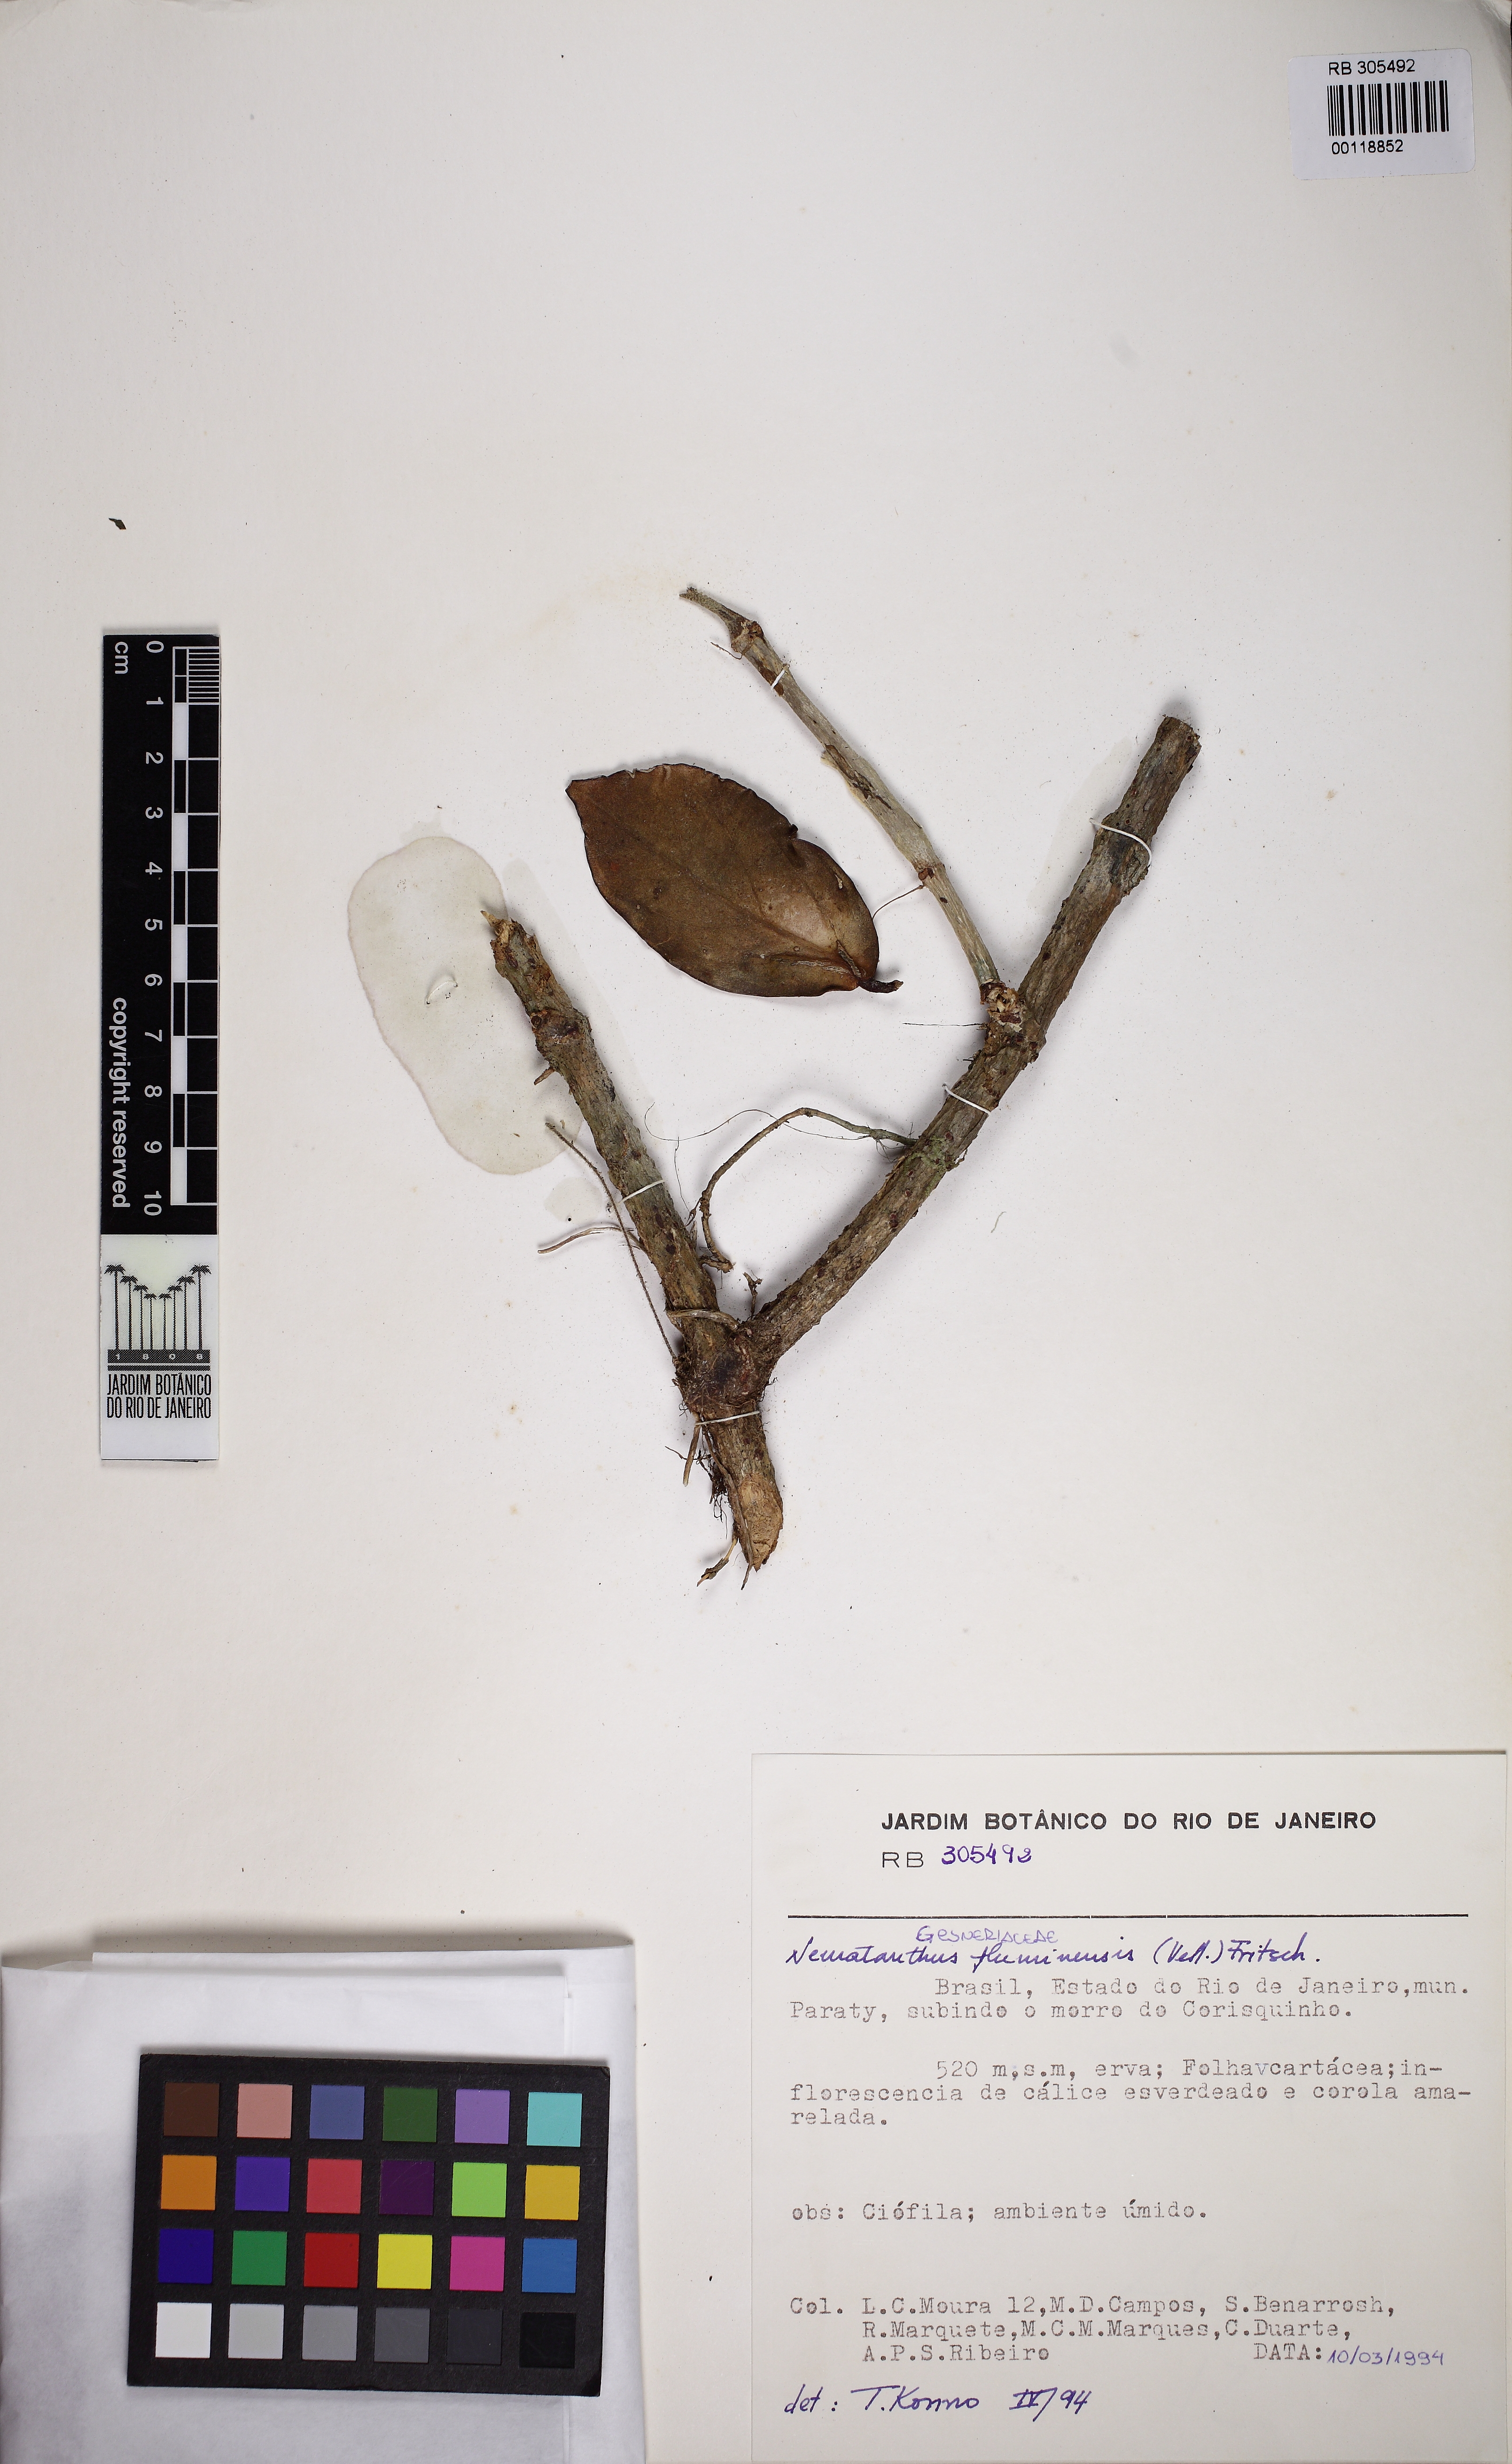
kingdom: Plantae
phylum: Tracheophyta
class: Magnoliopsida
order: Lamiales
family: Gesneriaceae
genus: Nematanthus
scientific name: Nematanthus fluminensis
